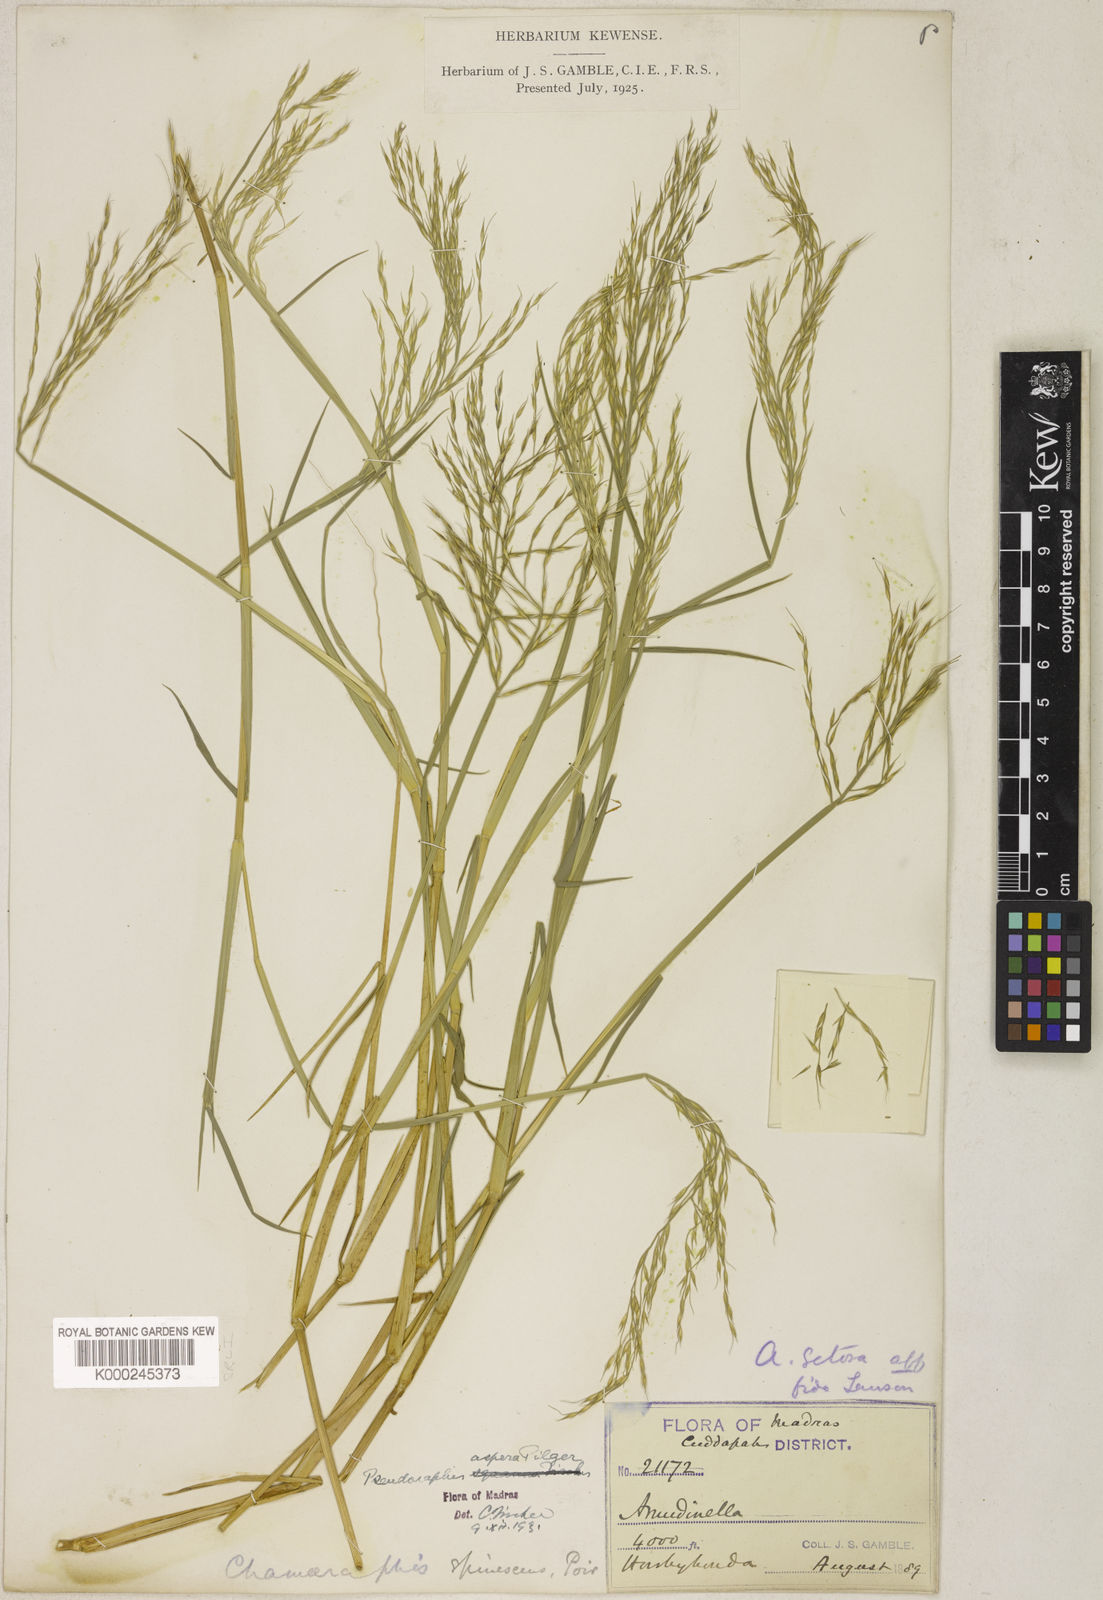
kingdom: Plantae
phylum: Tracheophyta
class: Liliopsida
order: Poales
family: Poaceae
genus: Pseudoraphis
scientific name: Pseudoraphis sordida
